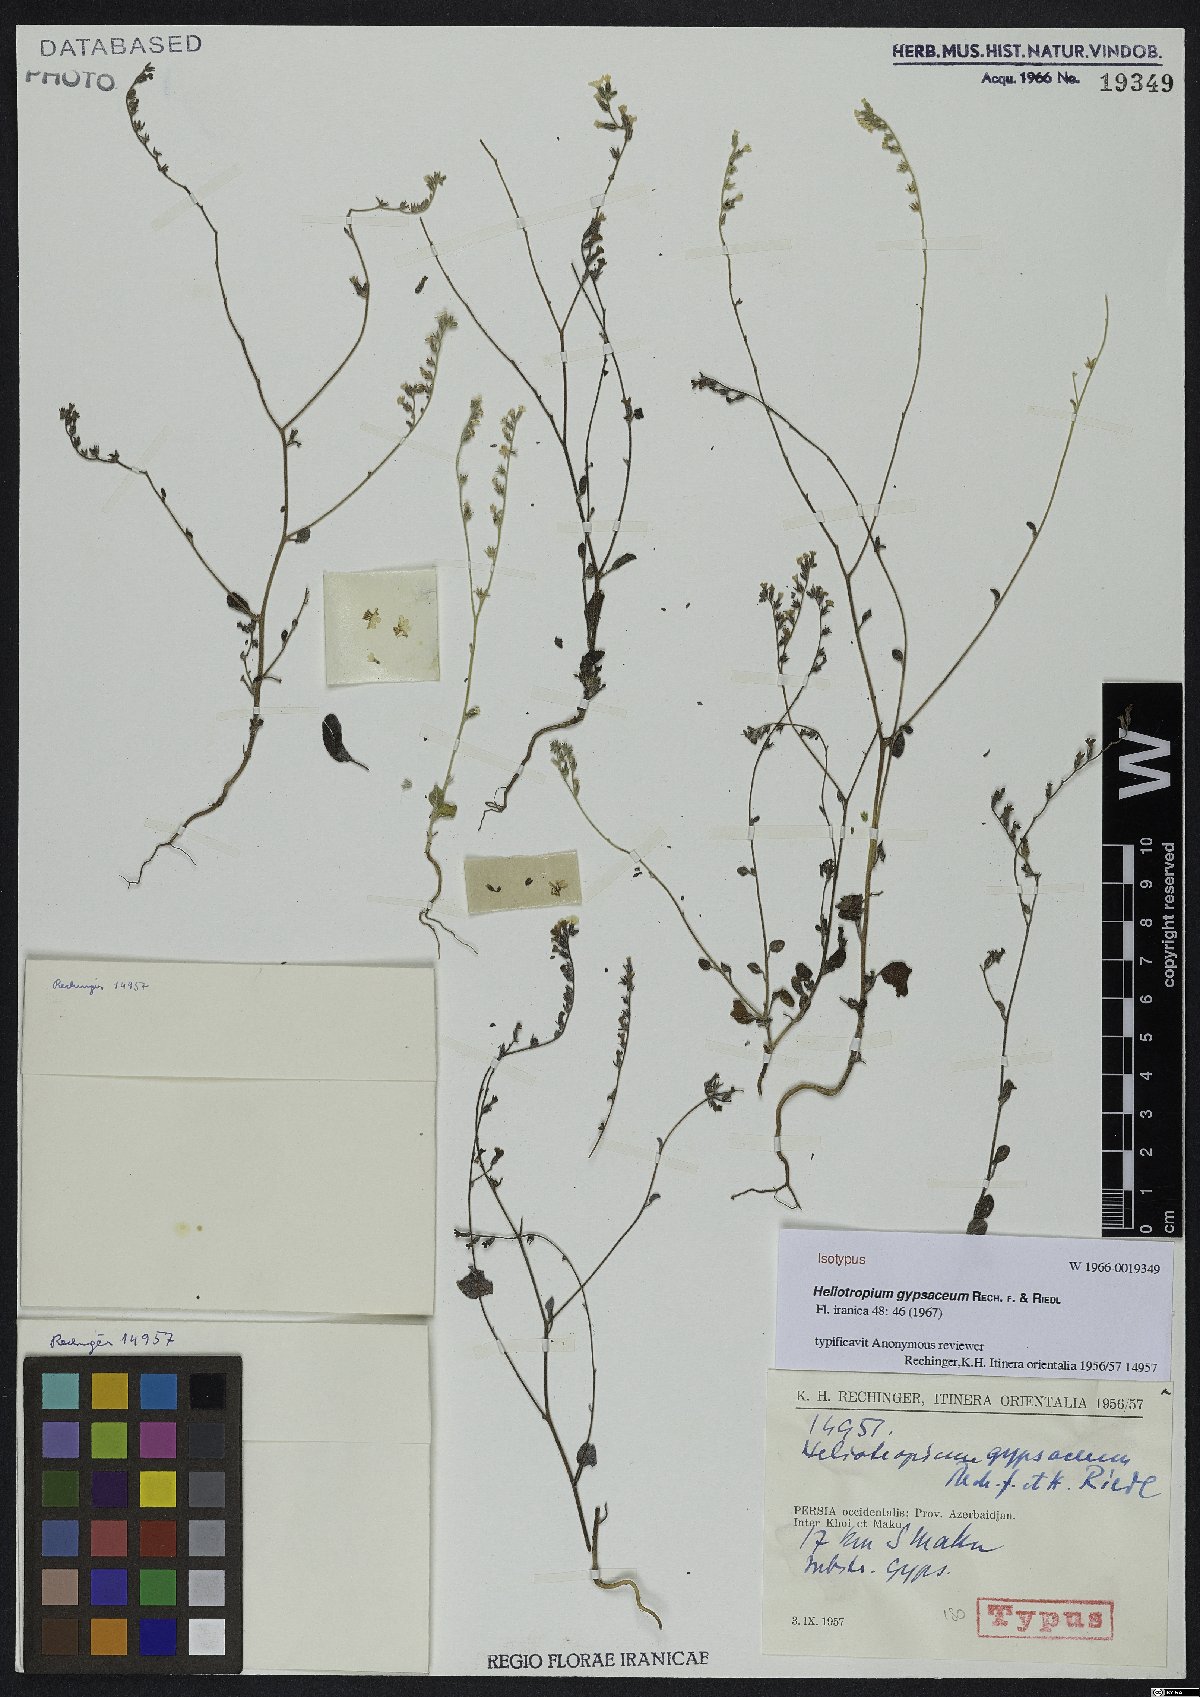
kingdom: Plantae
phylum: Tracheophyta
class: Magnoliopsida
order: Boraginales
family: Heliotropiaceae
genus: Heliotropium
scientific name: Heliotropium gypsaceum
